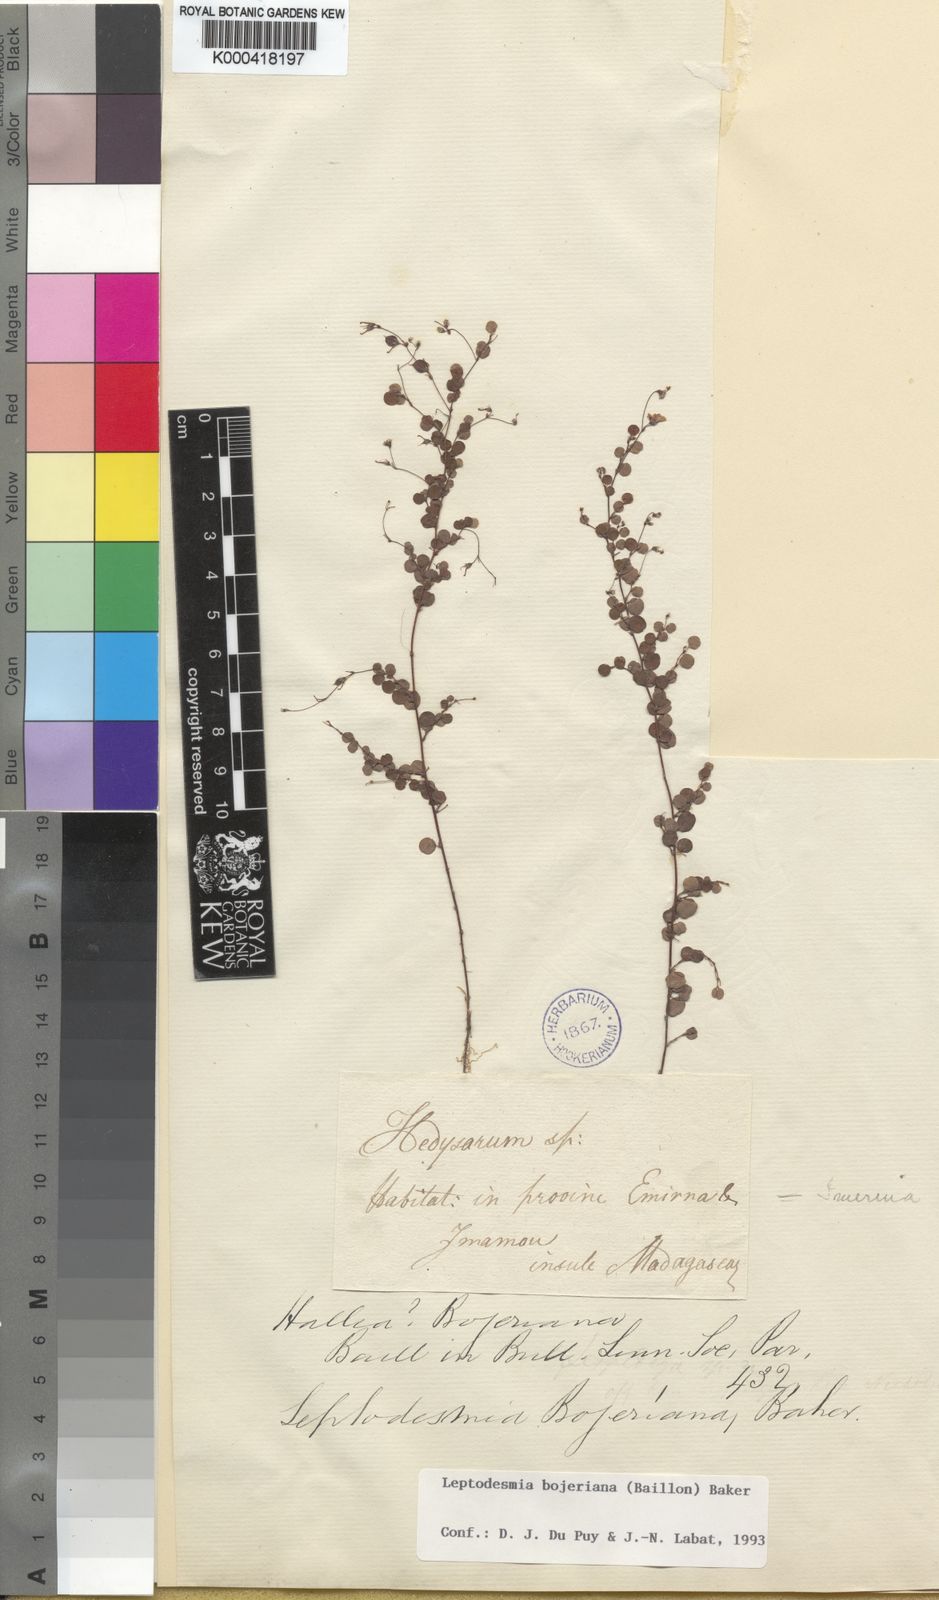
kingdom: Plantae
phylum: Tracheophyta
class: Magnoliopsida
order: Fabales
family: Fabaceae
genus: Leptodesmia
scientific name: Leptodesmia bojeriana
